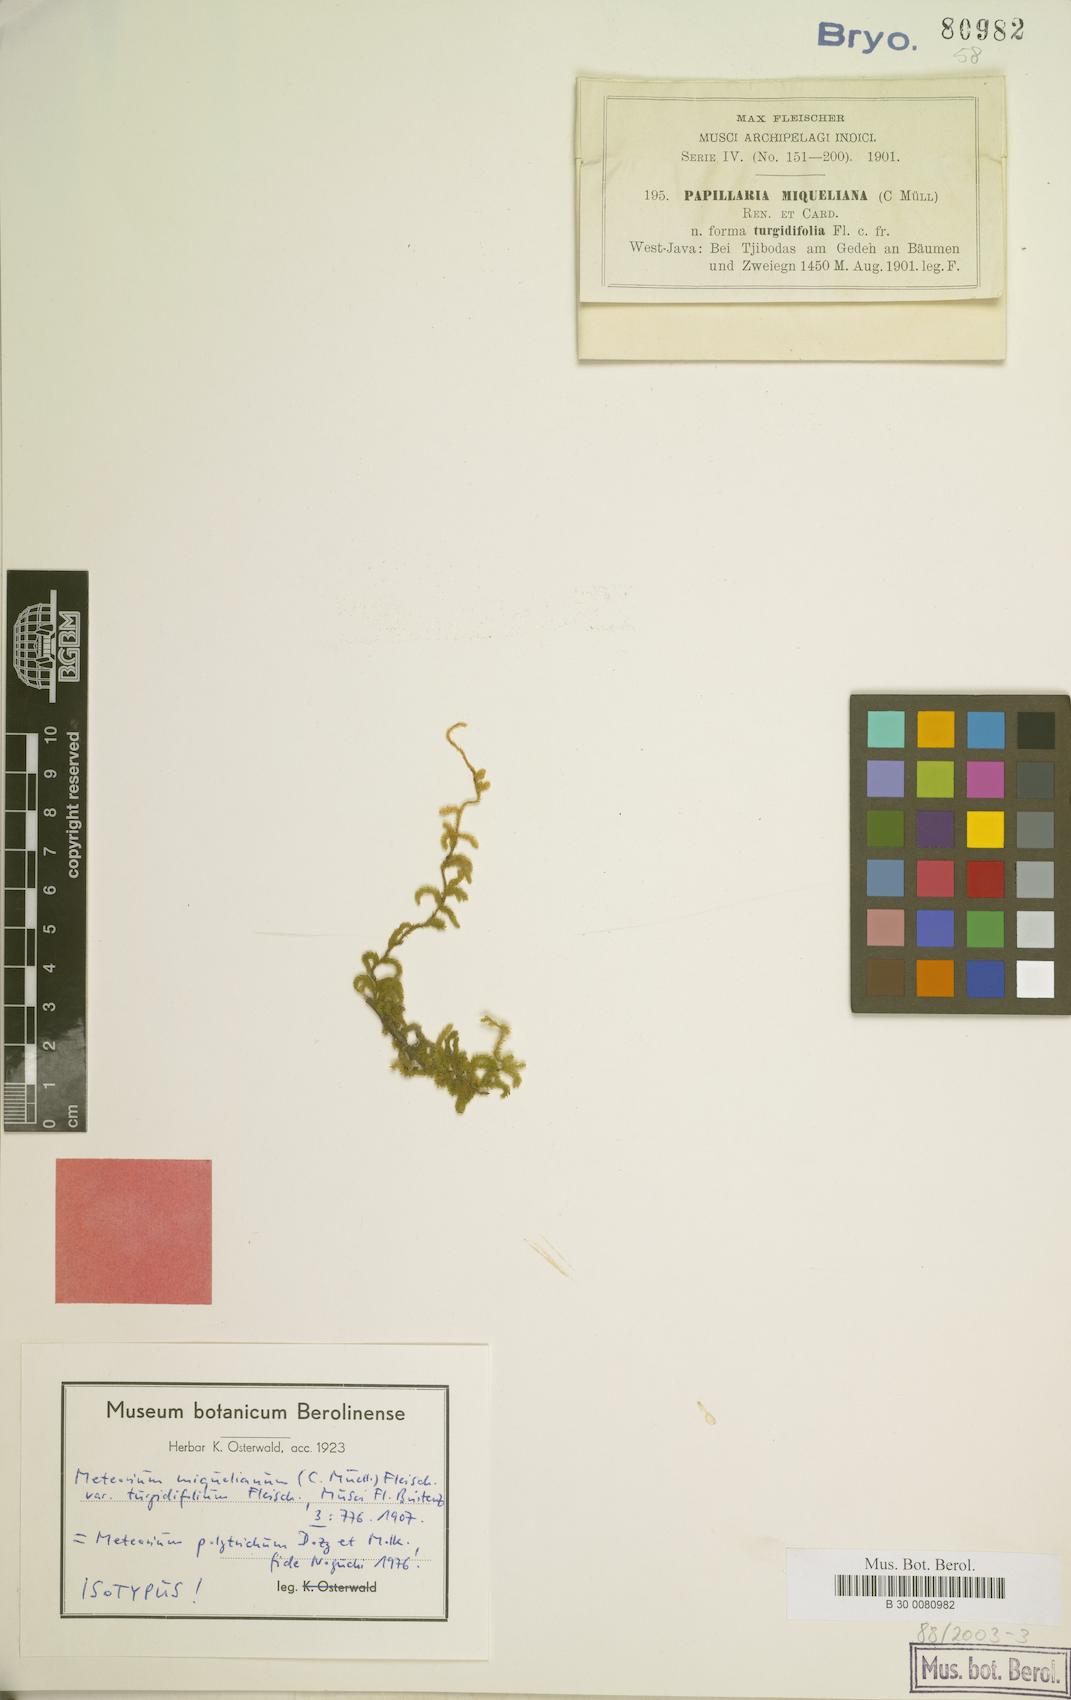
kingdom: Plantae
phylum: Bryophyta
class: Bryopsida
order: Hypnales
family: Meteoriaceae
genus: Meteorium
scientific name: Meteorium polytrichum
